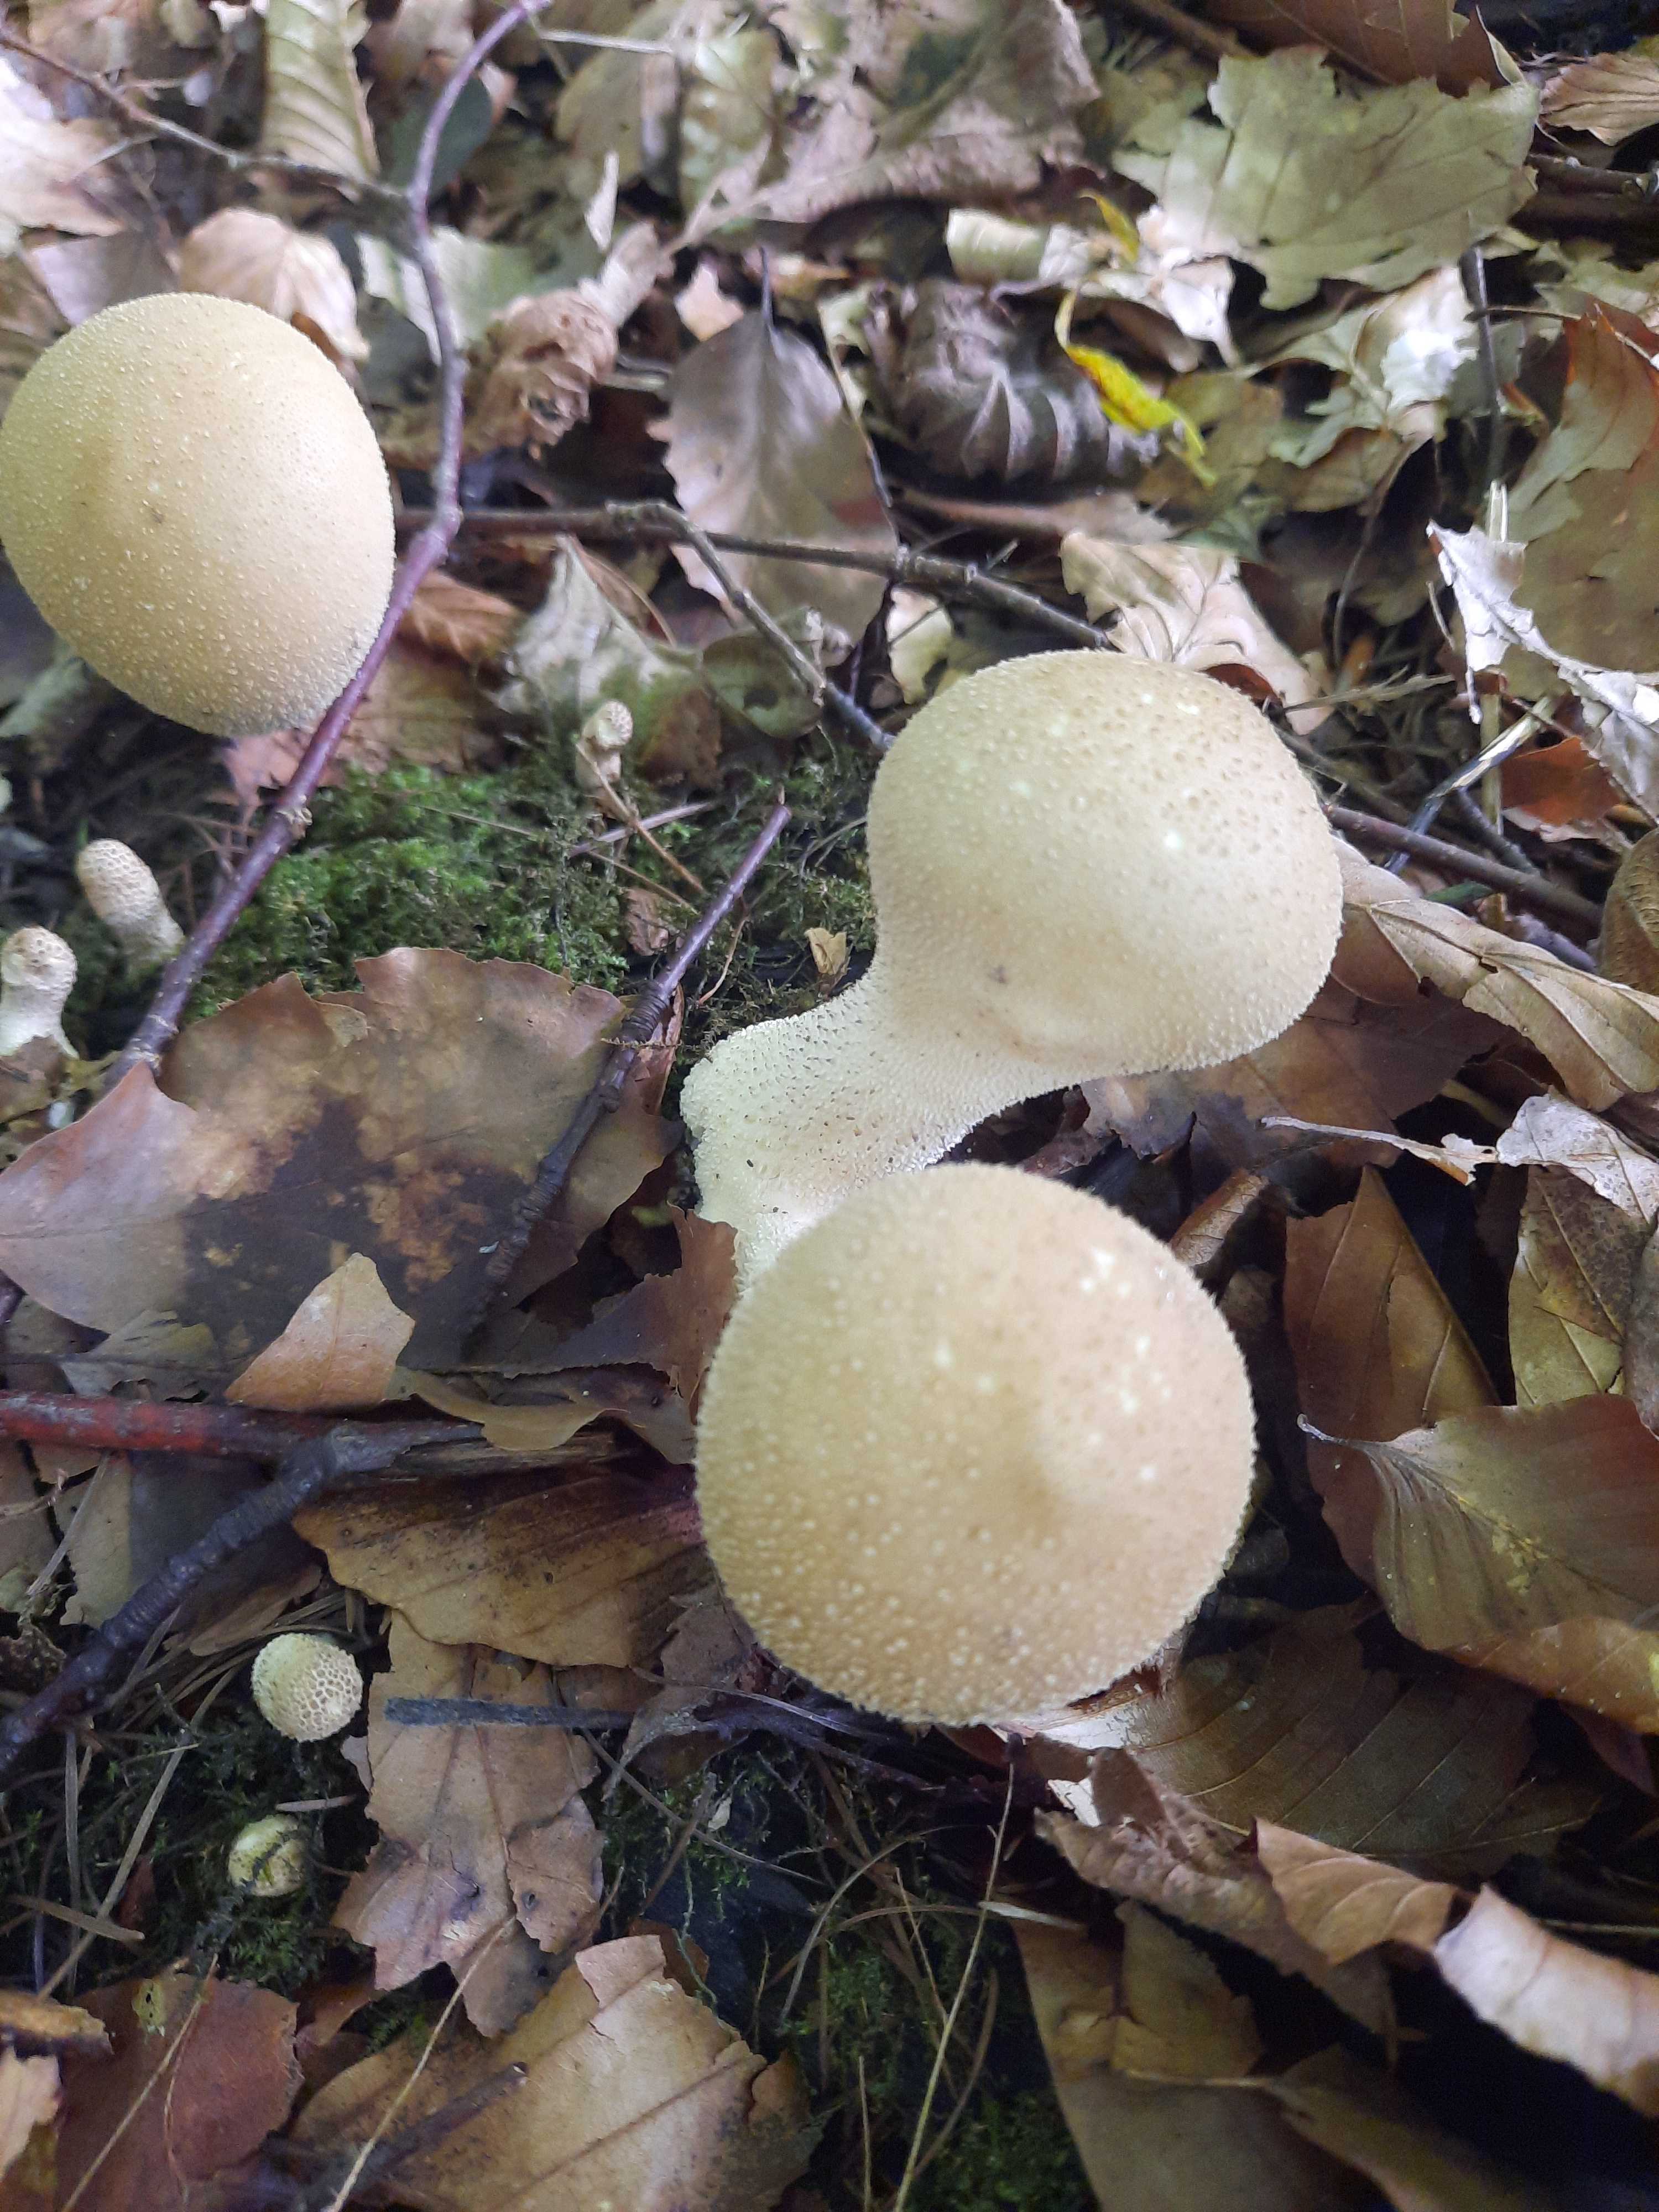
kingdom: Fungi
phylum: Basidiomycota
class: Agaricomycetes
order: Agaricales
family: Lycoperdaceae
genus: Apioperdon
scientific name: Apioperdon pyriforme
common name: pære-støvbold
